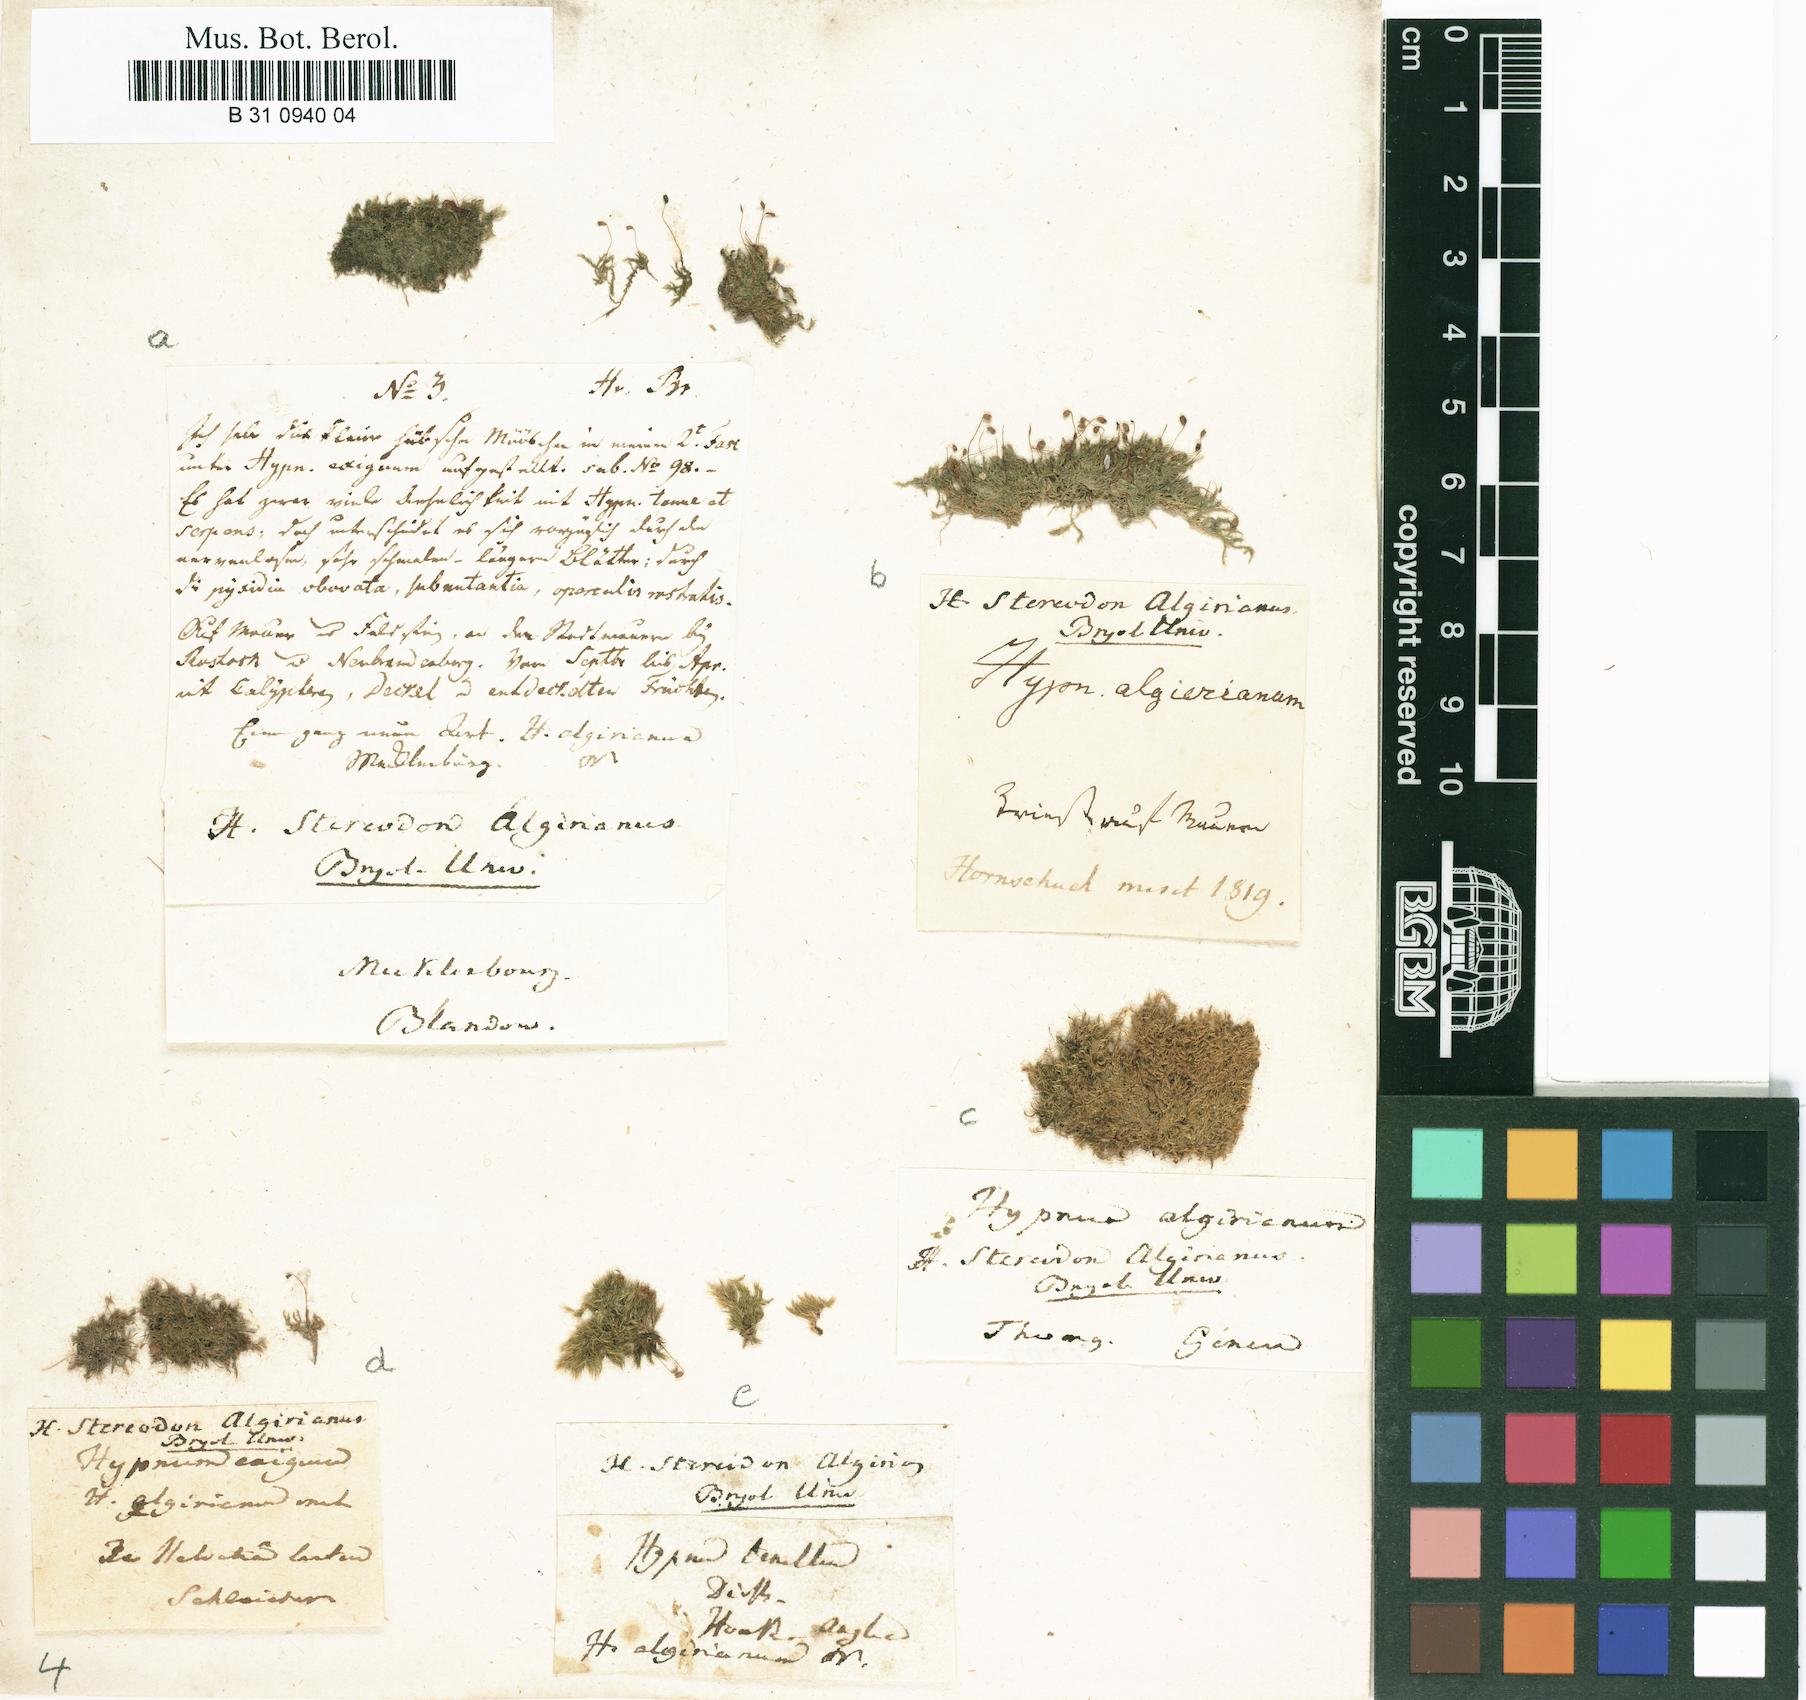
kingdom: Plantae
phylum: Bryophyta
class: Bryopsida
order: Hypnales
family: Brachytheciaceae
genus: Rhynchostegiella
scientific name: Rhynchostegiella curviseta
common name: Curve-stalked feather-moss
